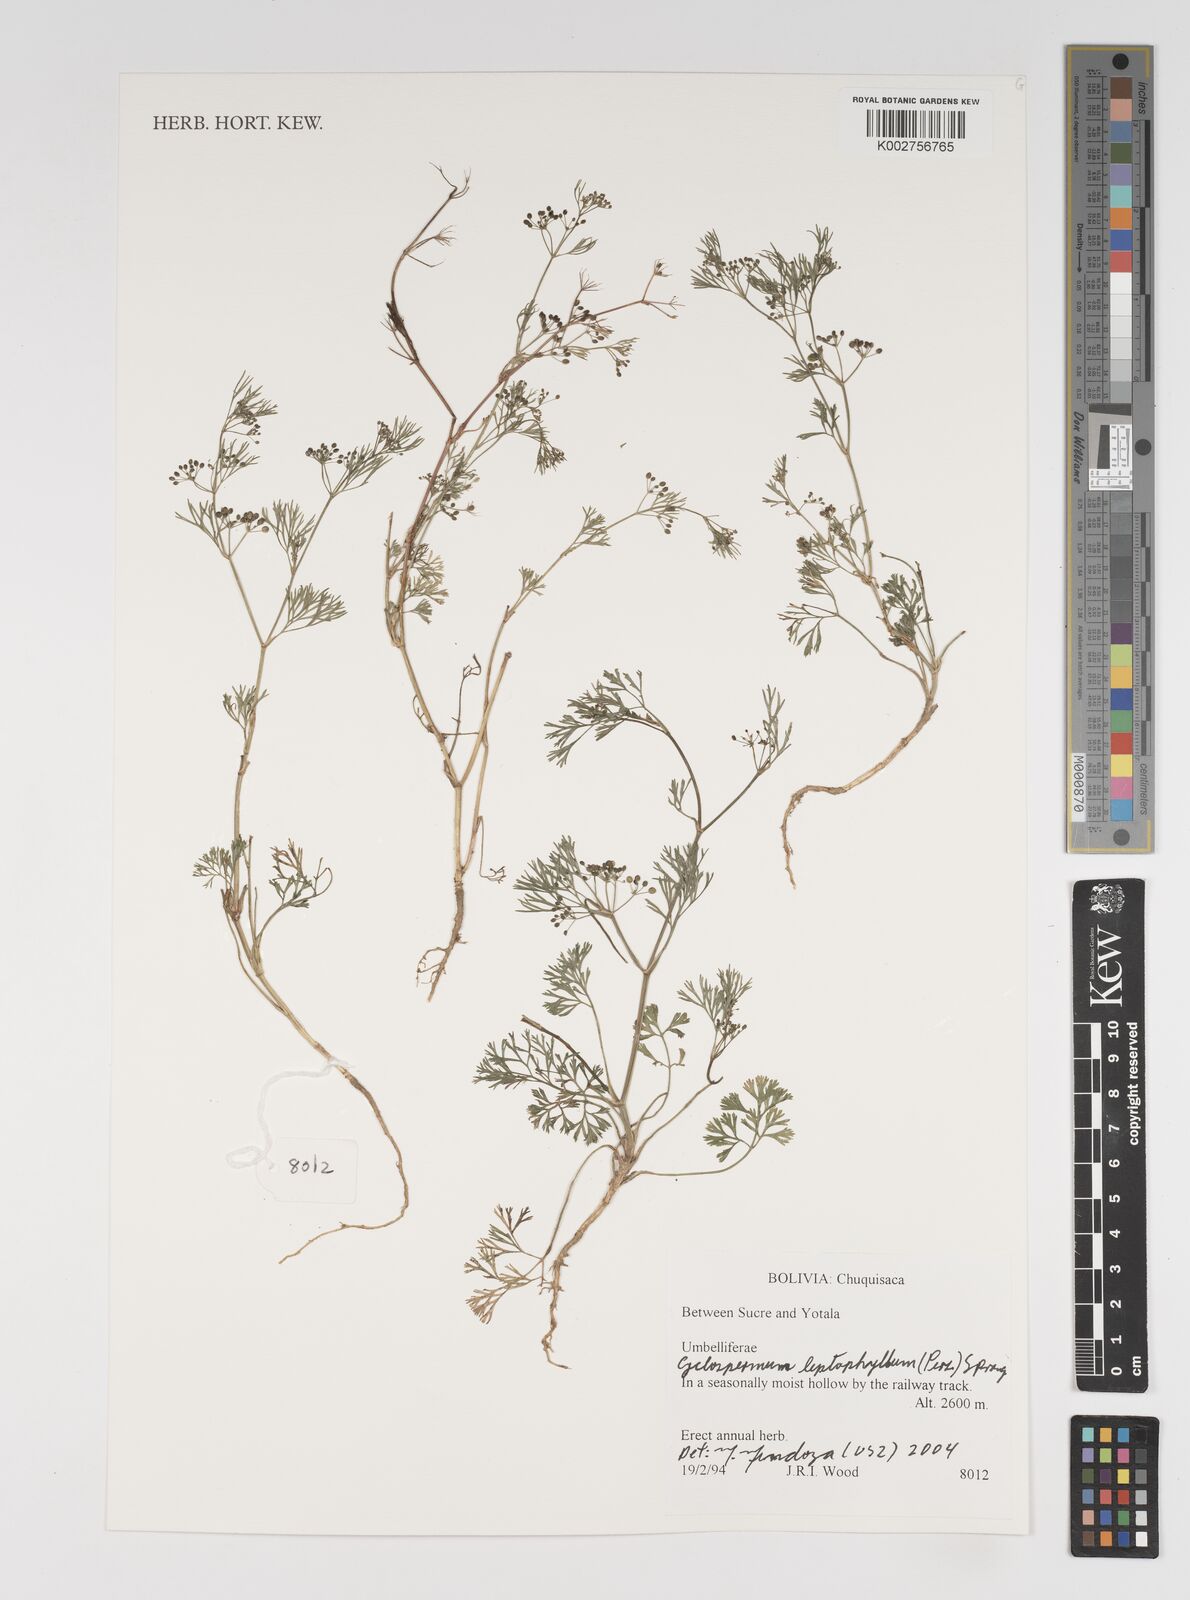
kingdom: Plantae
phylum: Tracheophyta
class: Magnoliopsida
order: Apiales
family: Apiaceae
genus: Cyclospermum
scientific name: Cyclospermum leptophyllum
